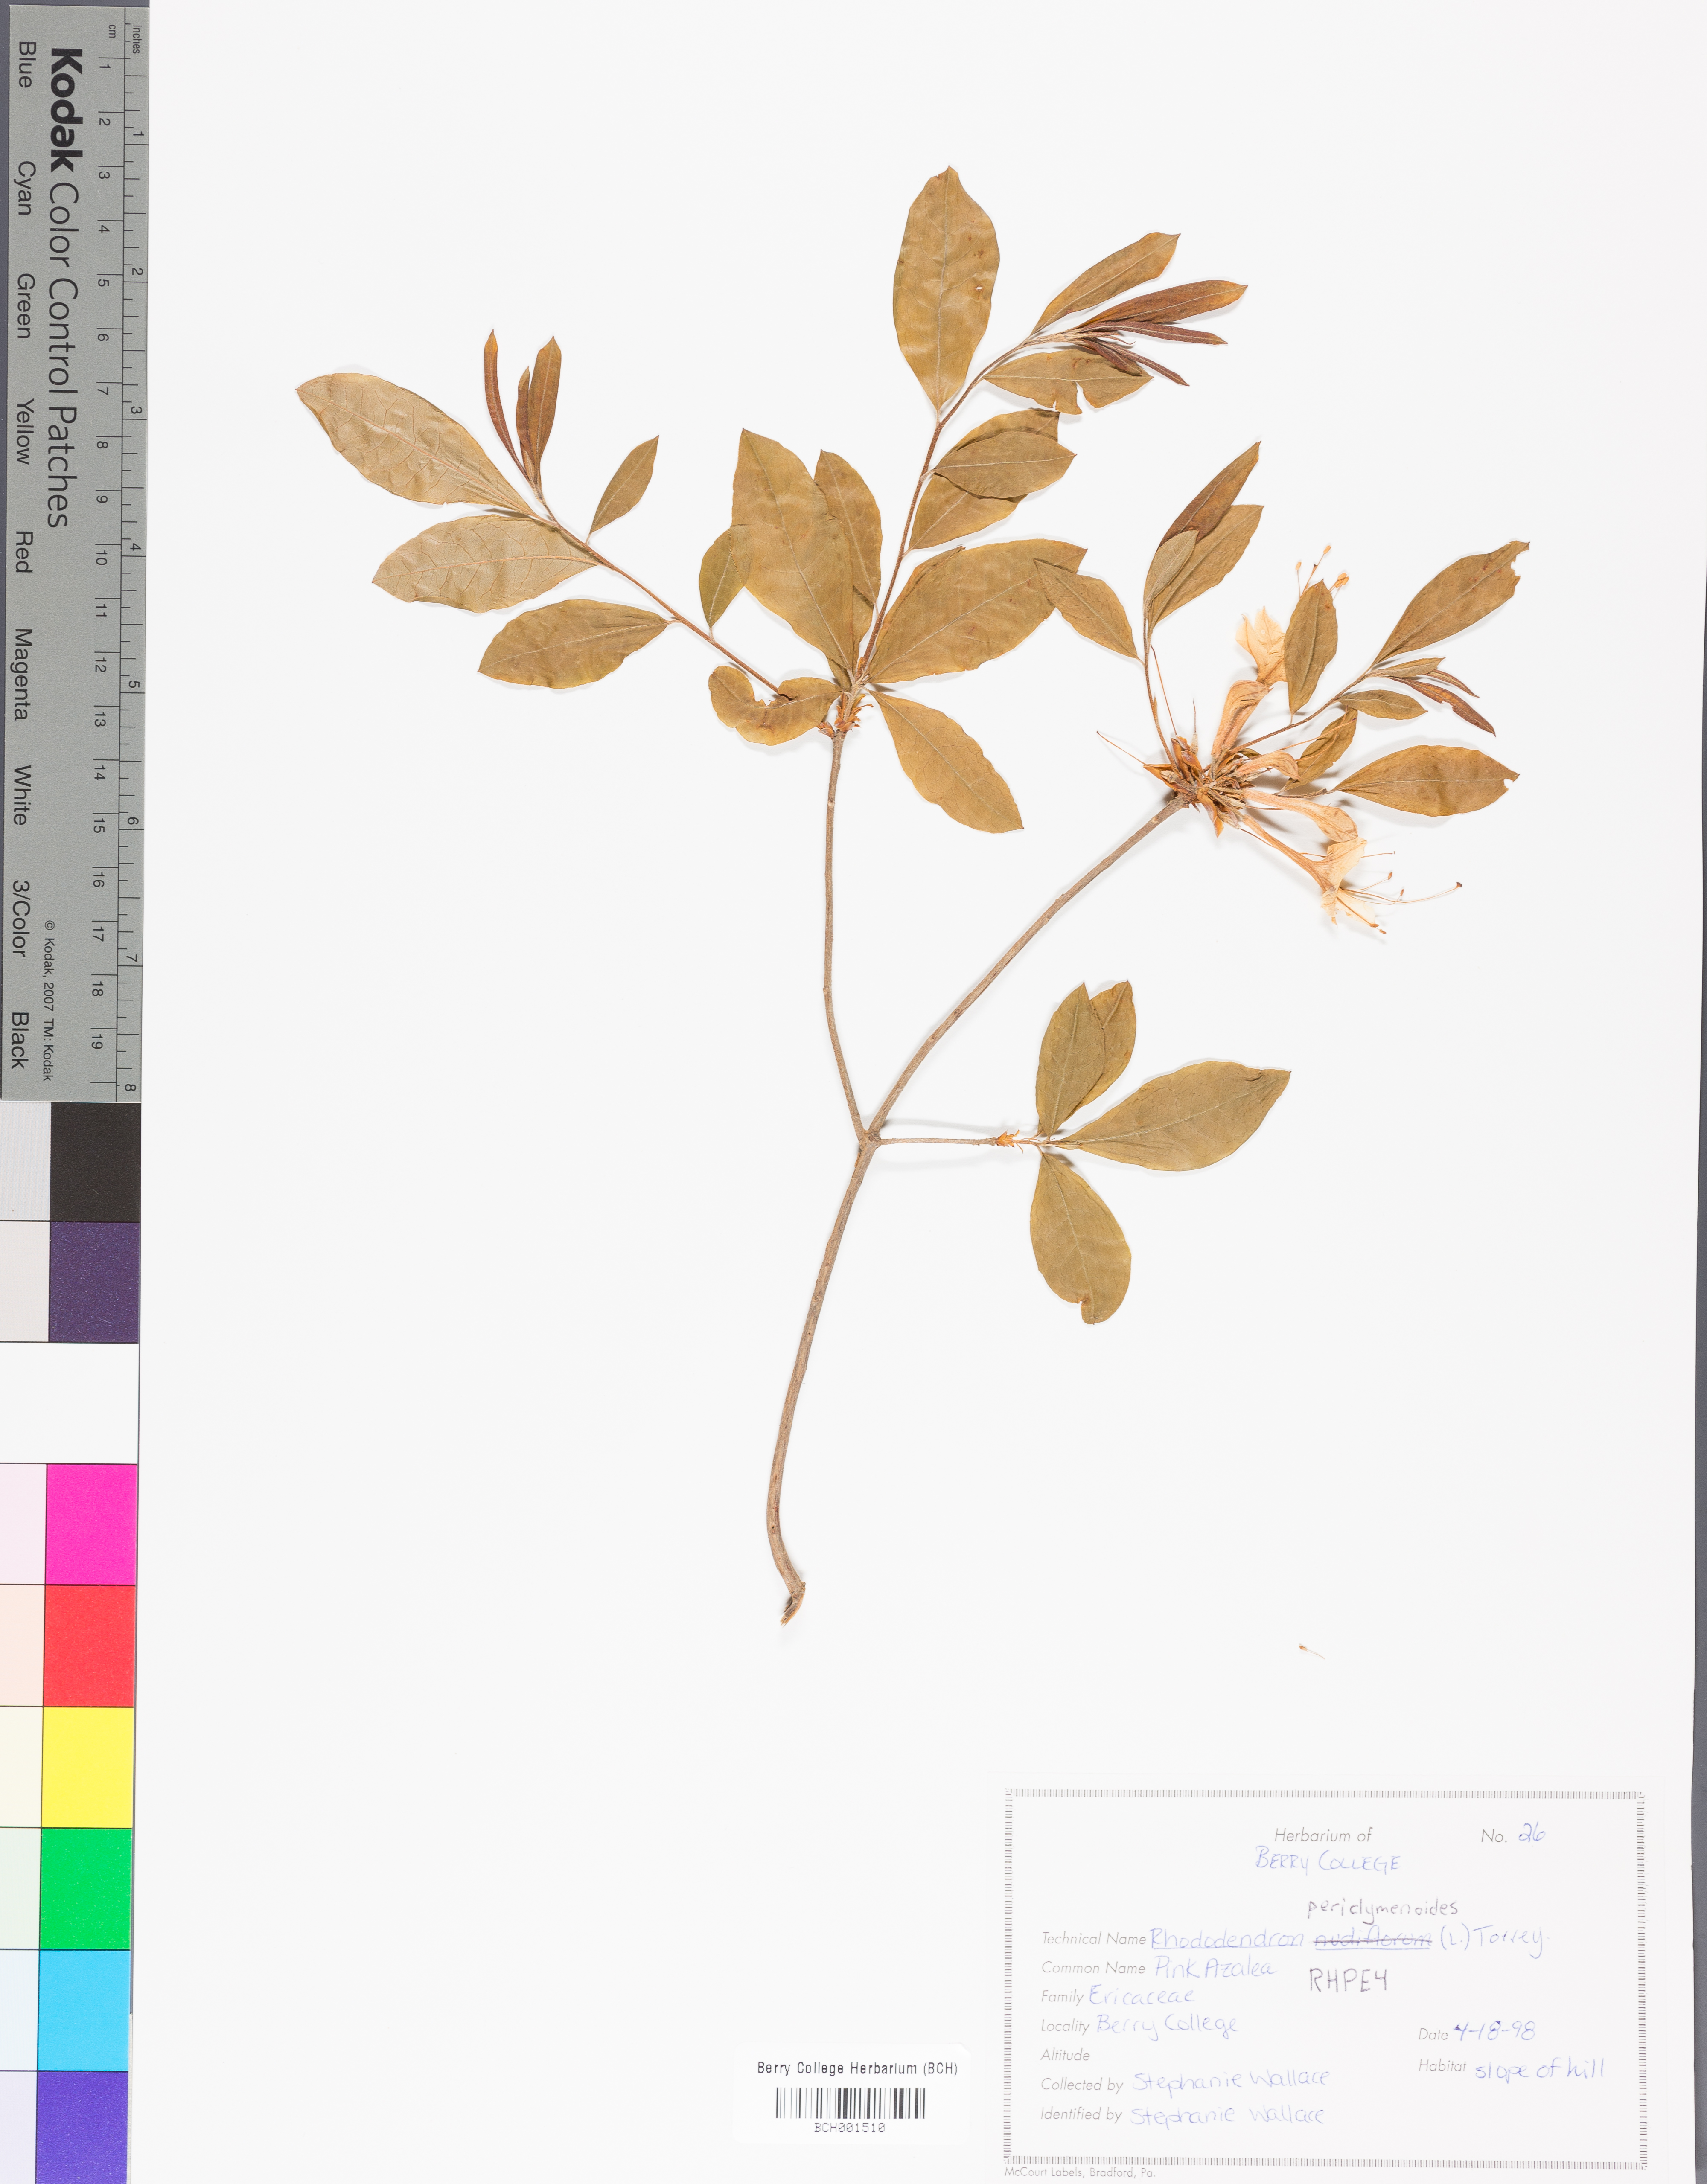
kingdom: Plantae
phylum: Tracheophyta
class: Magnoliopsida
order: Ericales
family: Ericaceae
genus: Rhododendron
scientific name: Rhododendron periclymenoides
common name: Election-pink
